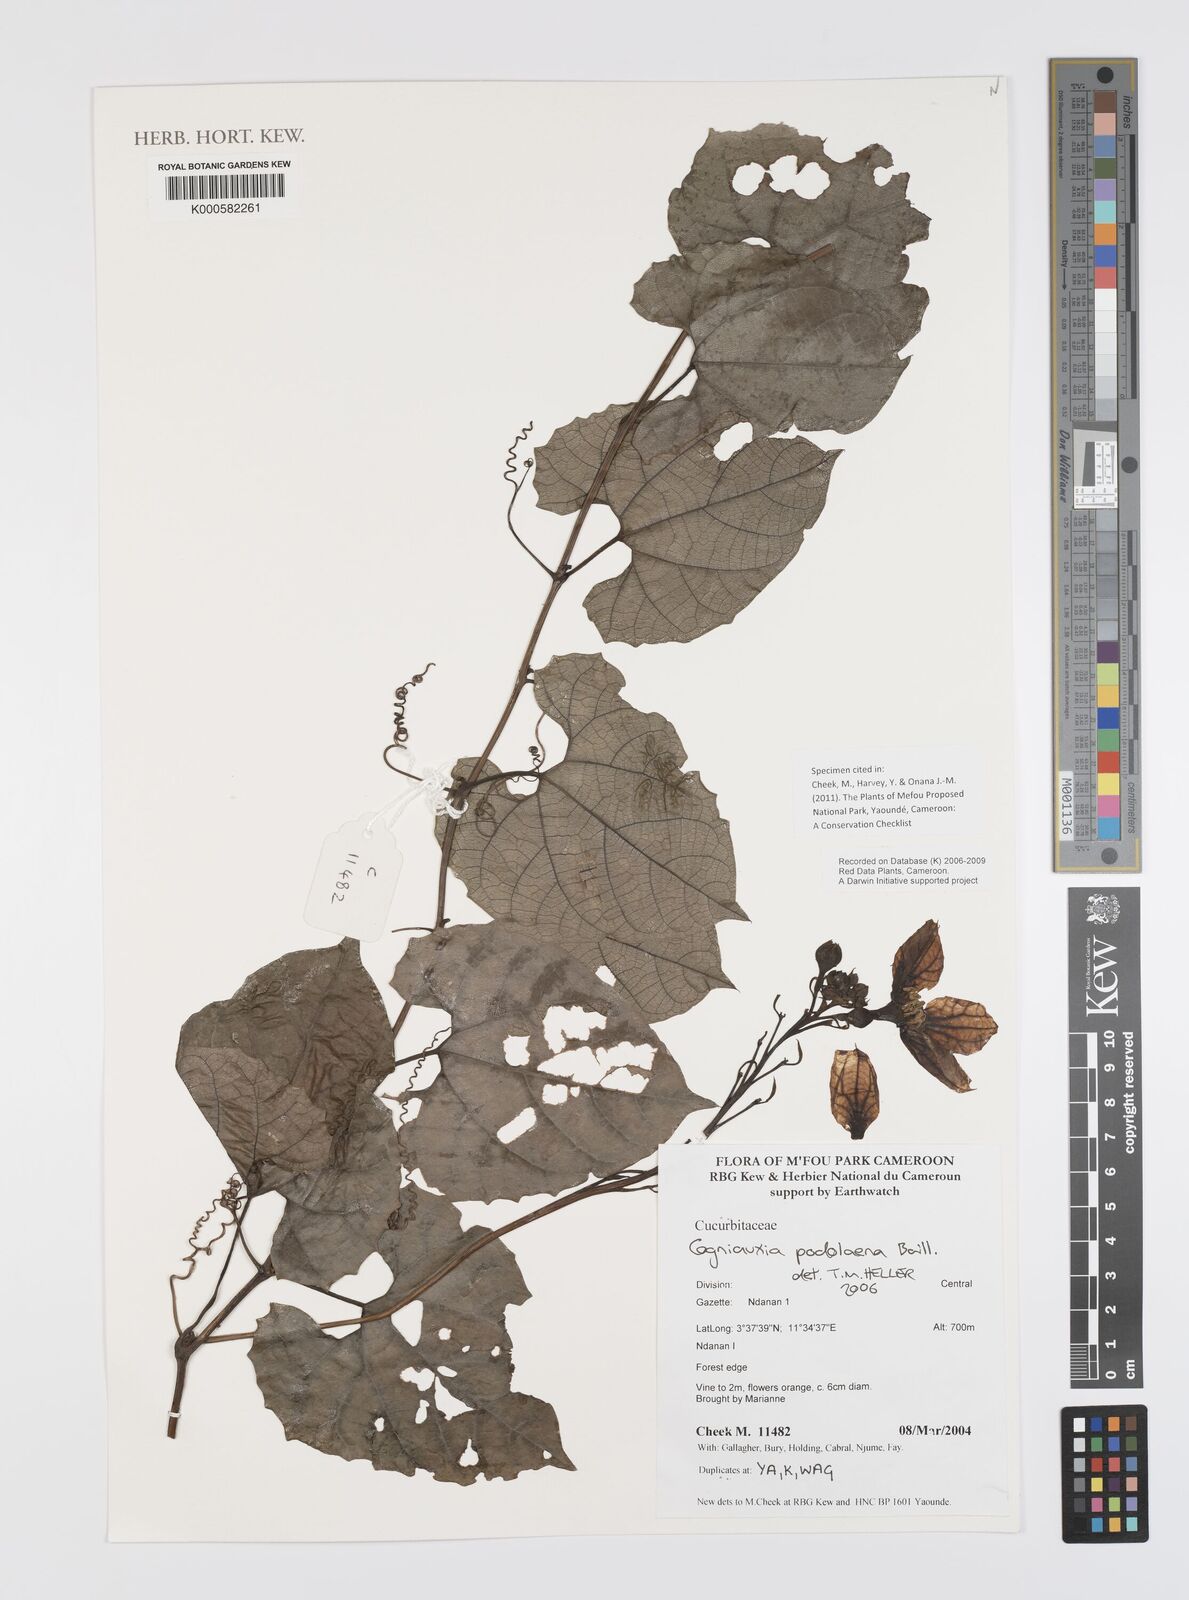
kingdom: Plantae
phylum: Tracheophyta
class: Magnoliopsida
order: Cucurbitales
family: Cucurbitaceae
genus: Cogniauxia
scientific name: Cogniauxia podolaena
